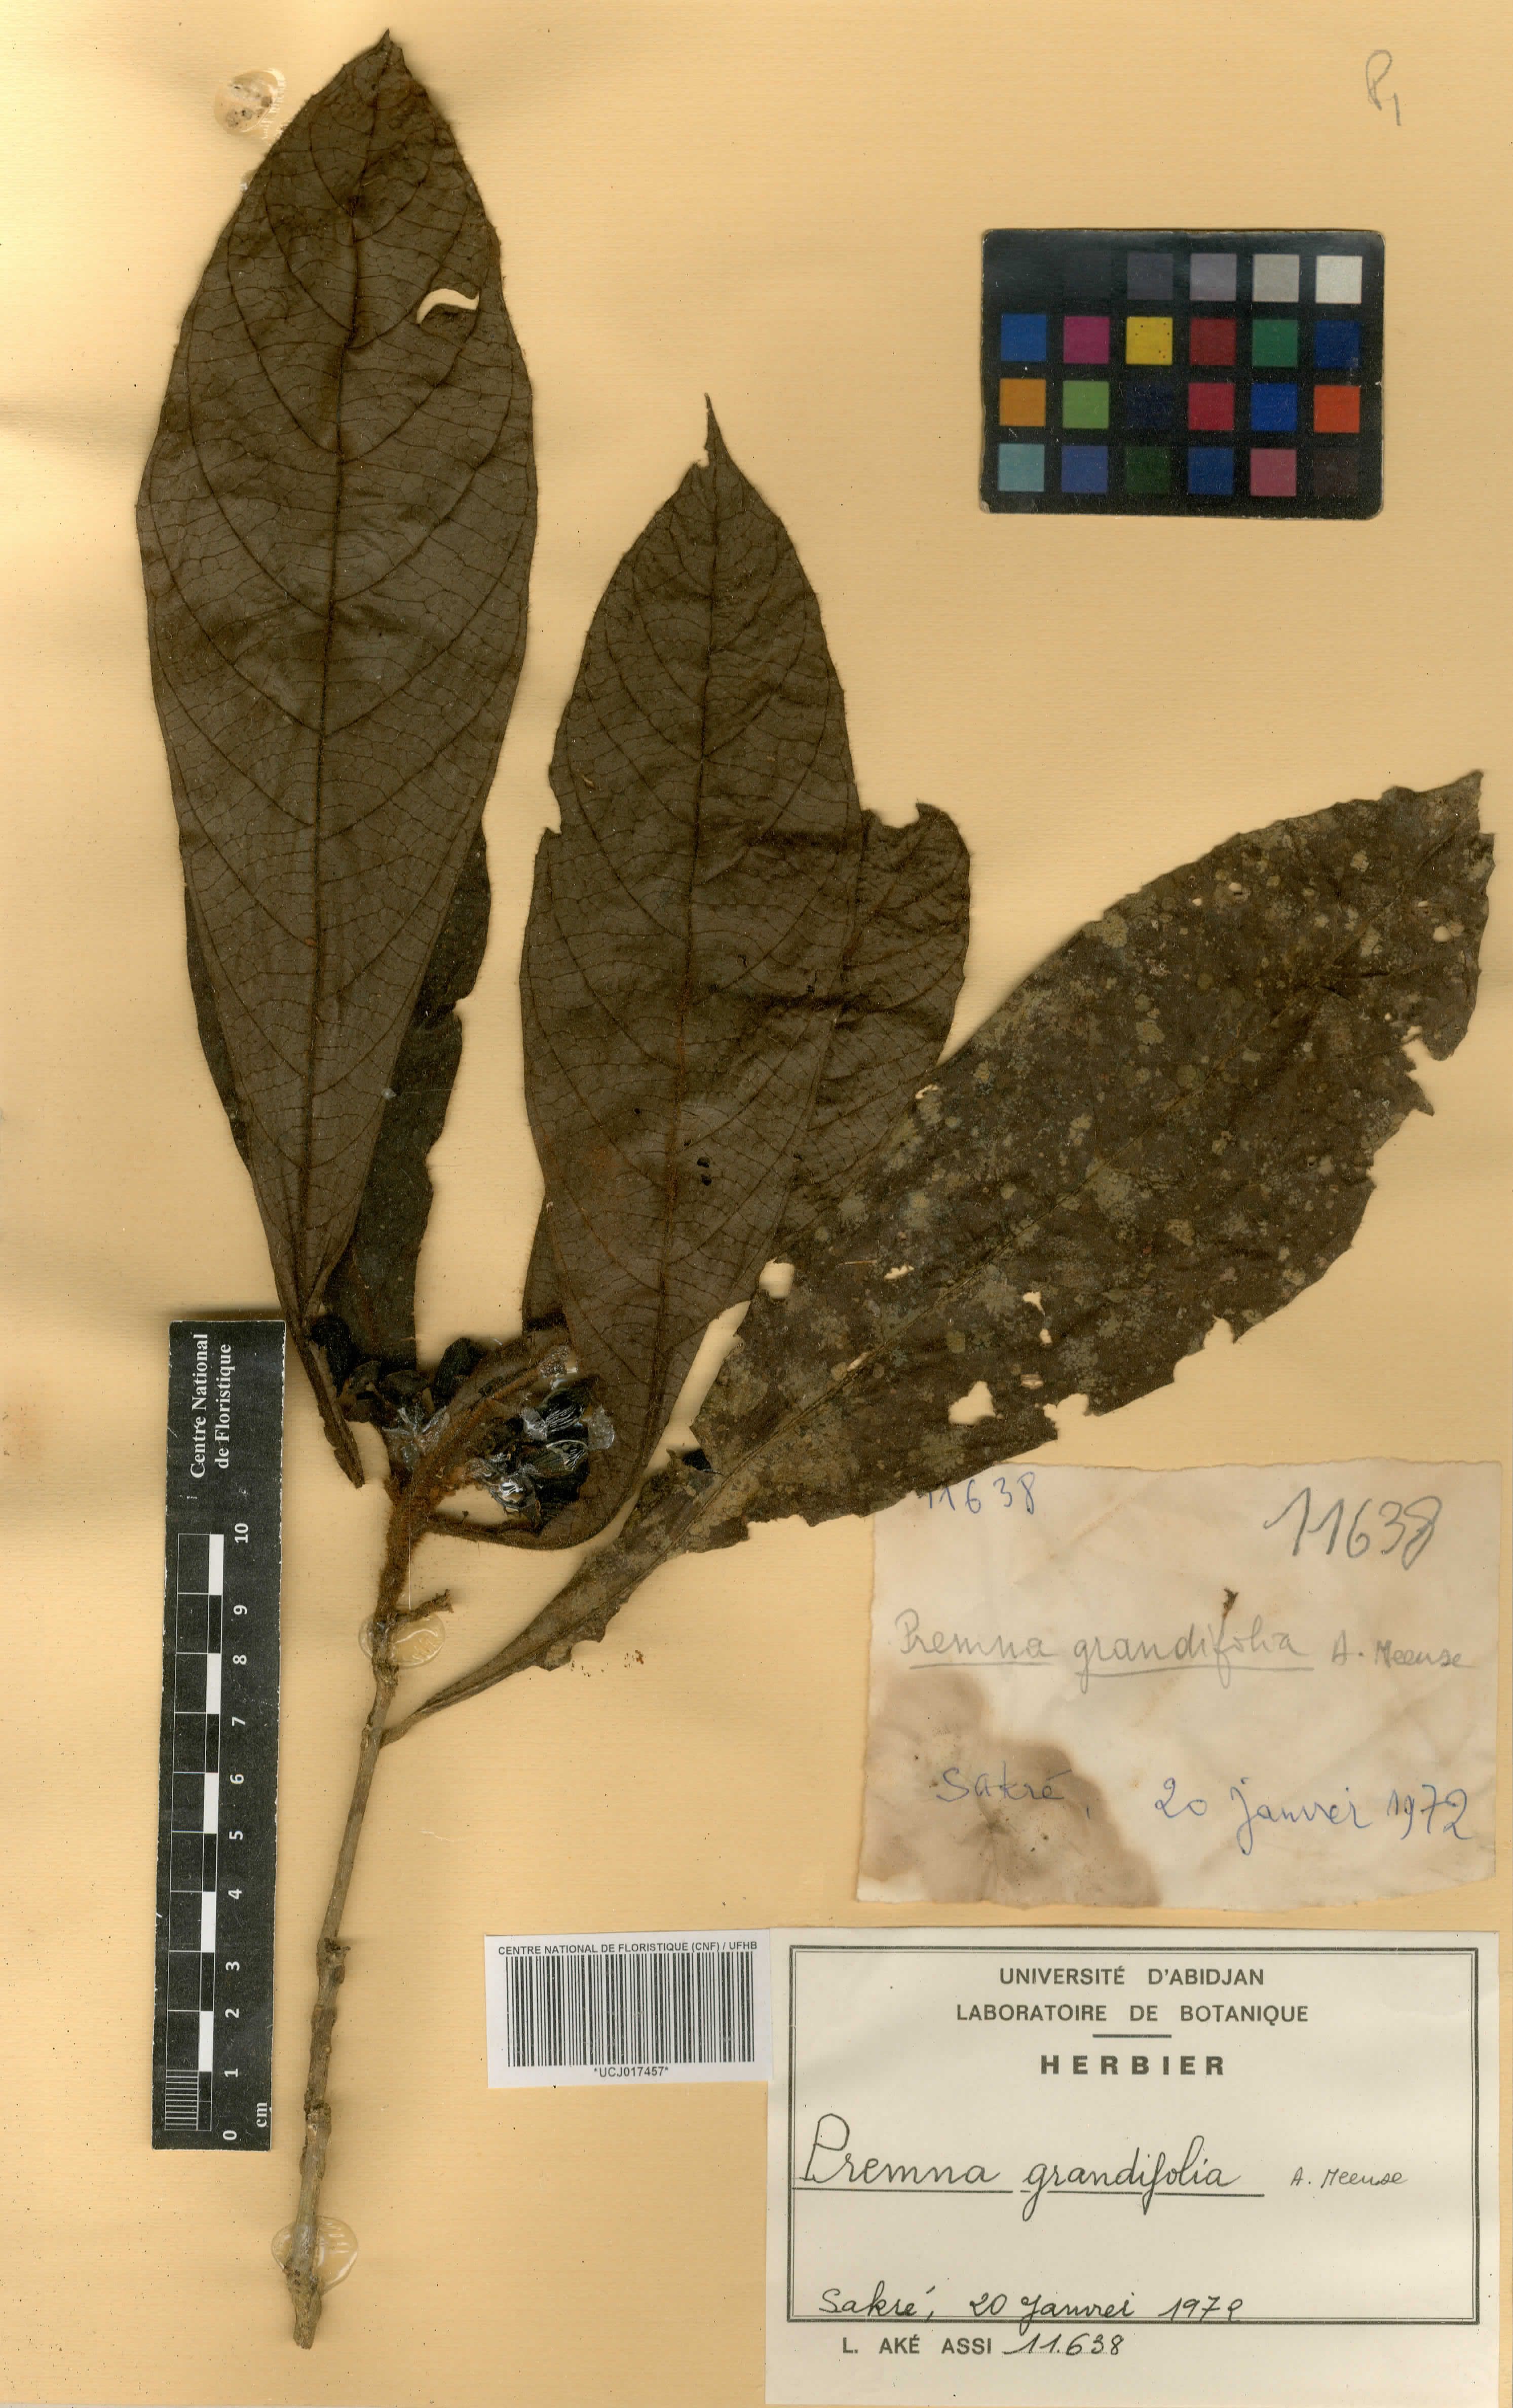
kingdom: Plantae
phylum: Tracheophyta
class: Magnoliopsida
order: Lamiales
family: Lamiaceae
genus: Premna
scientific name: Premna hutchinsonii
